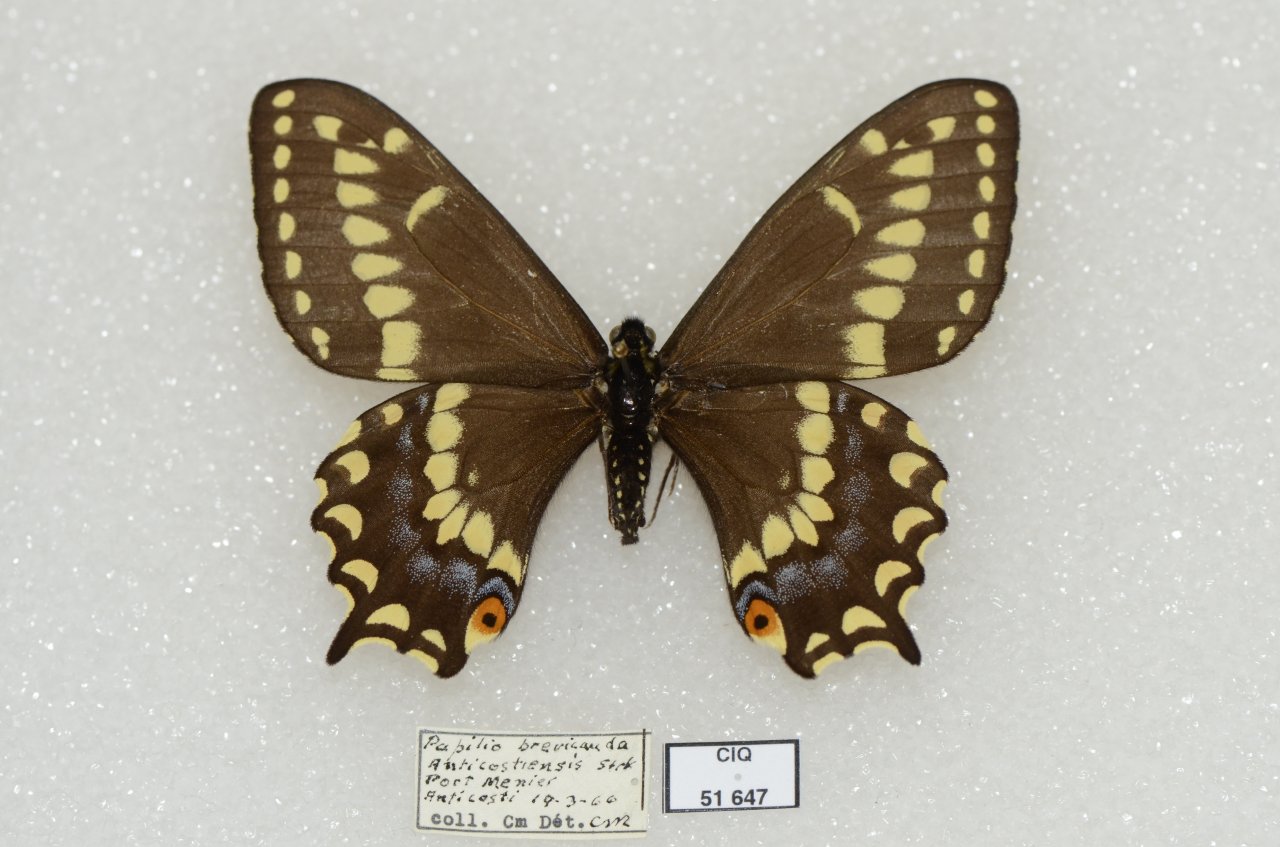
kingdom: Animalia
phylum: Arthropoda
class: Insecta
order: Lepidoptera
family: Papilionidae
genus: Papilio
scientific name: Papilio brevicauda
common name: Short-tailed Swallowtail
